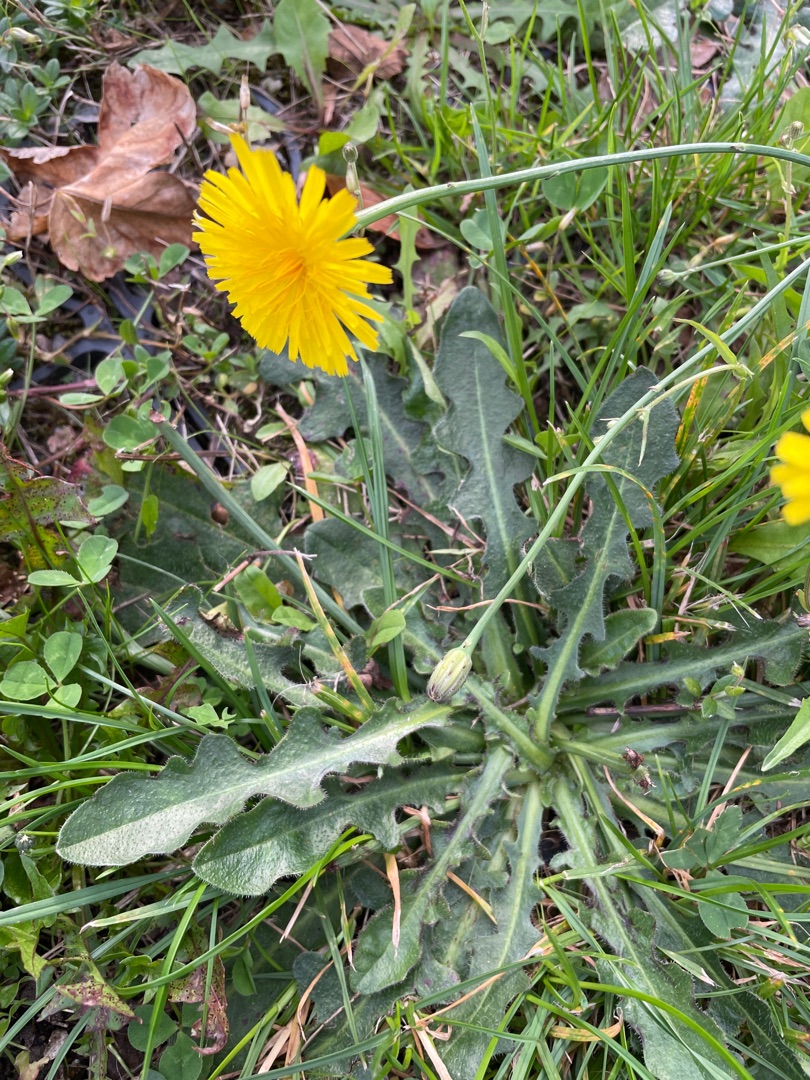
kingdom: Plantae
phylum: Tracheophyta
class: Magnoliopsida
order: Asterales
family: Asteraceae
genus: Hypochaeris
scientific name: Hypochaeris radicata
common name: Almindelig kongepen
